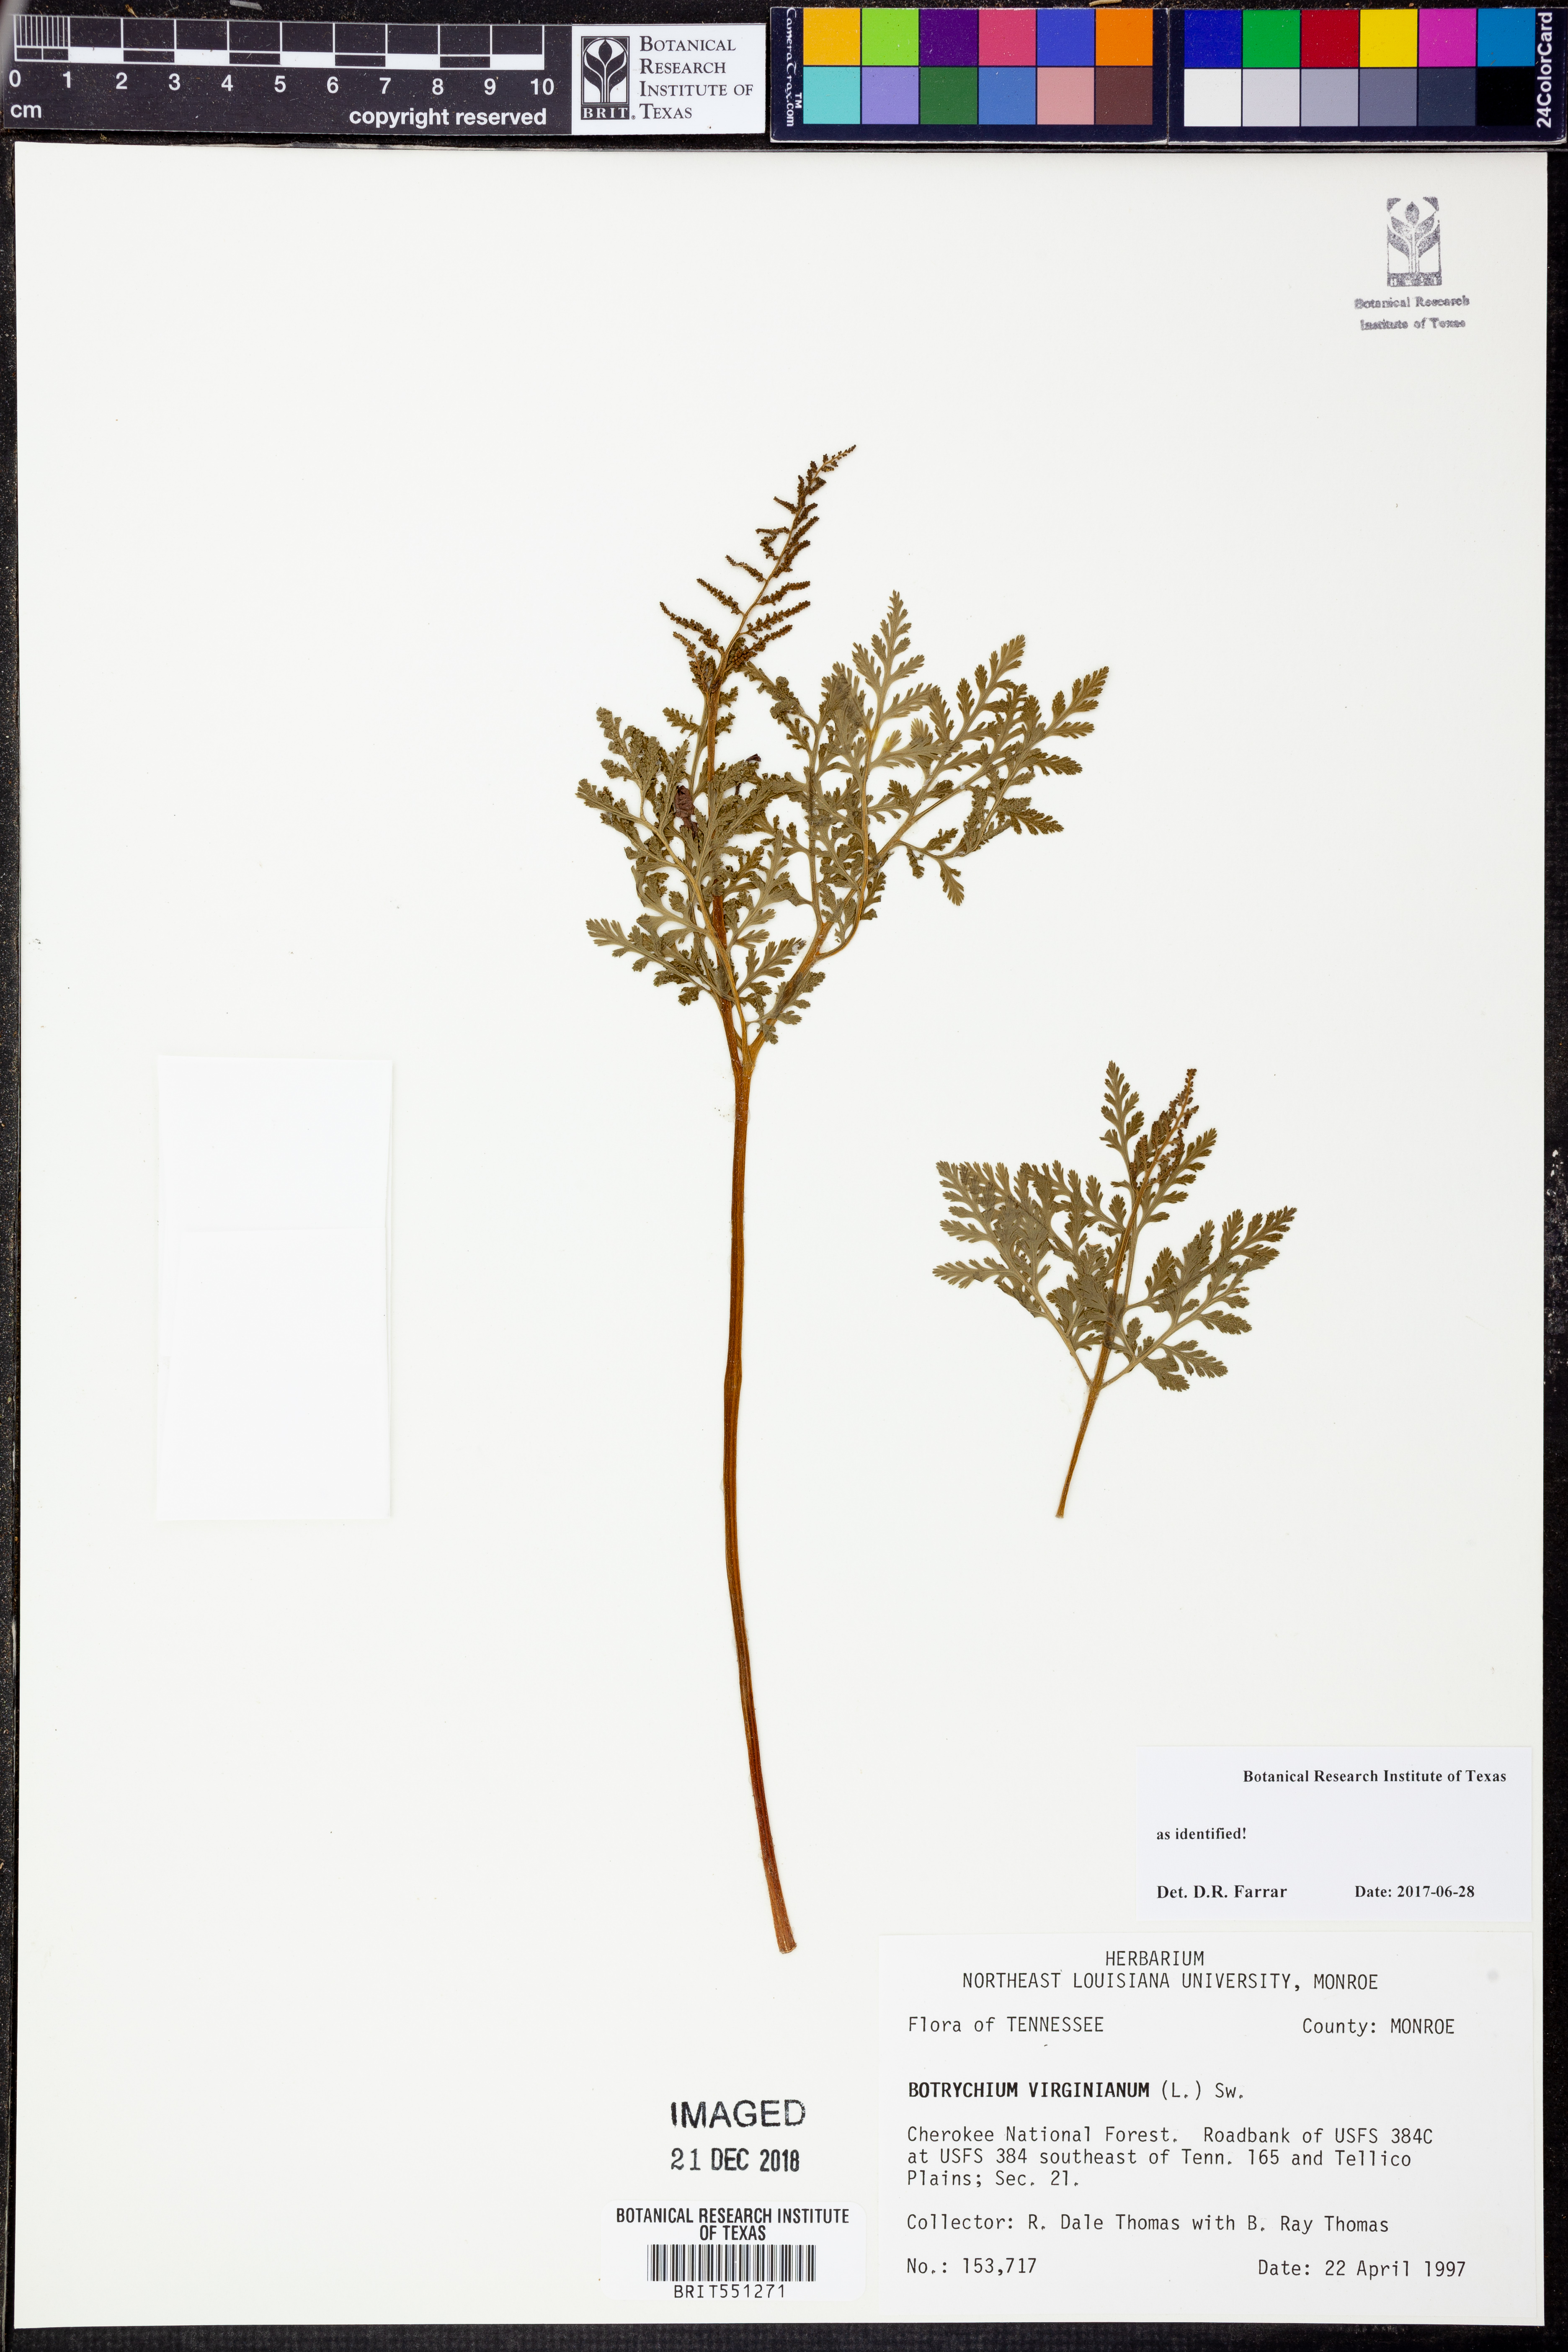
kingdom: Plantae
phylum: Tracheophyta
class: Polypodiopsida
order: Ophioglossales
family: Ophioglossaceae
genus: Botrypus
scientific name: Botrypus virginianus
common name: Common grapefern
